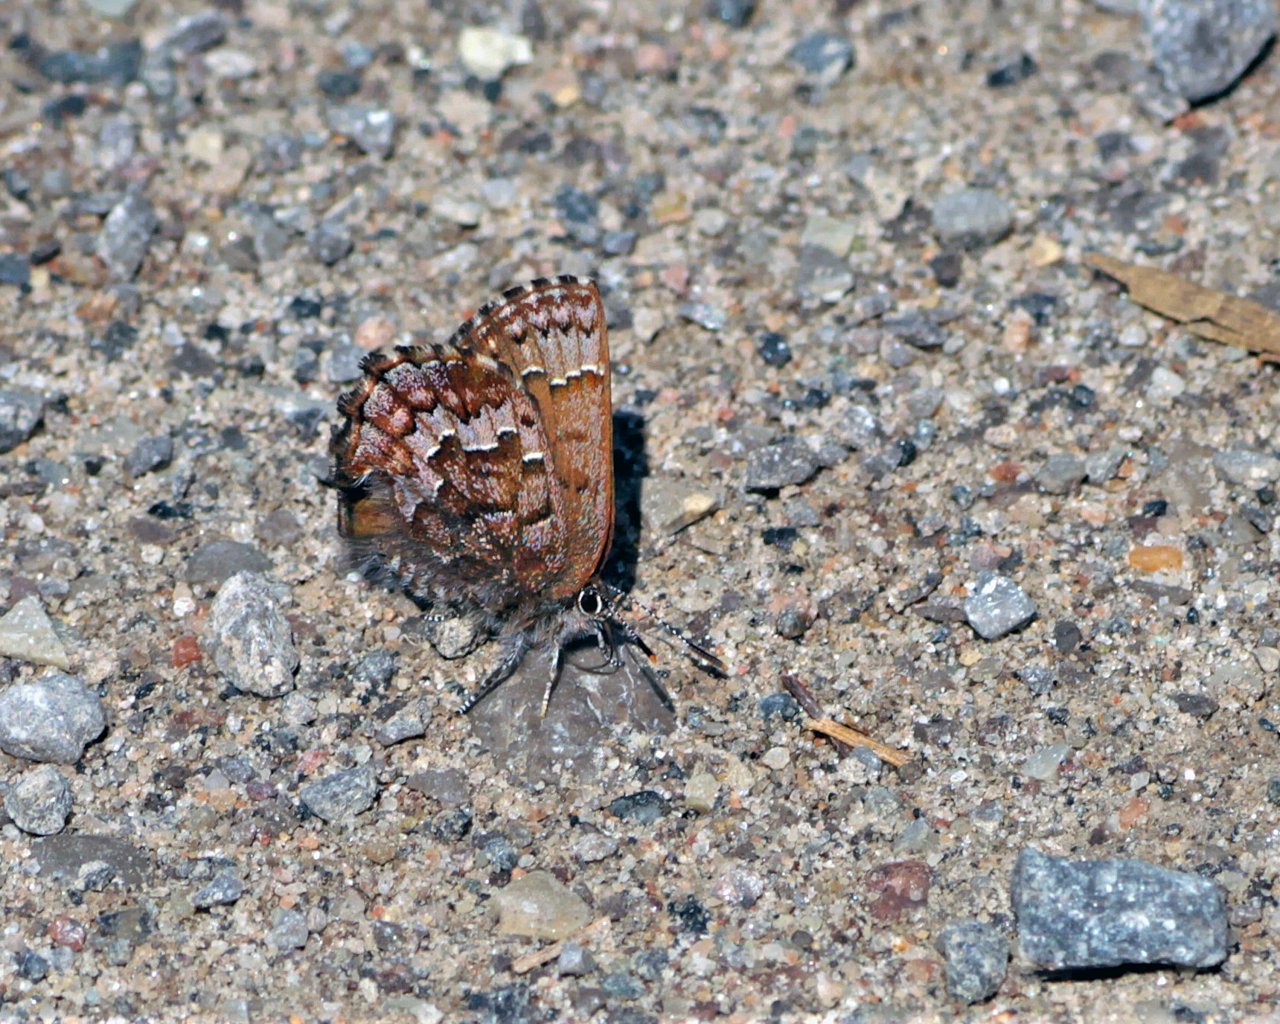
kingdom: Animalia
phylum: Arthropoda
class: Insecta
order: Lepidoptera
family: Lycaenidae
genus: Incisalia
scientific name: Incisalia niphon
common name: Eastern Pine Elfin
